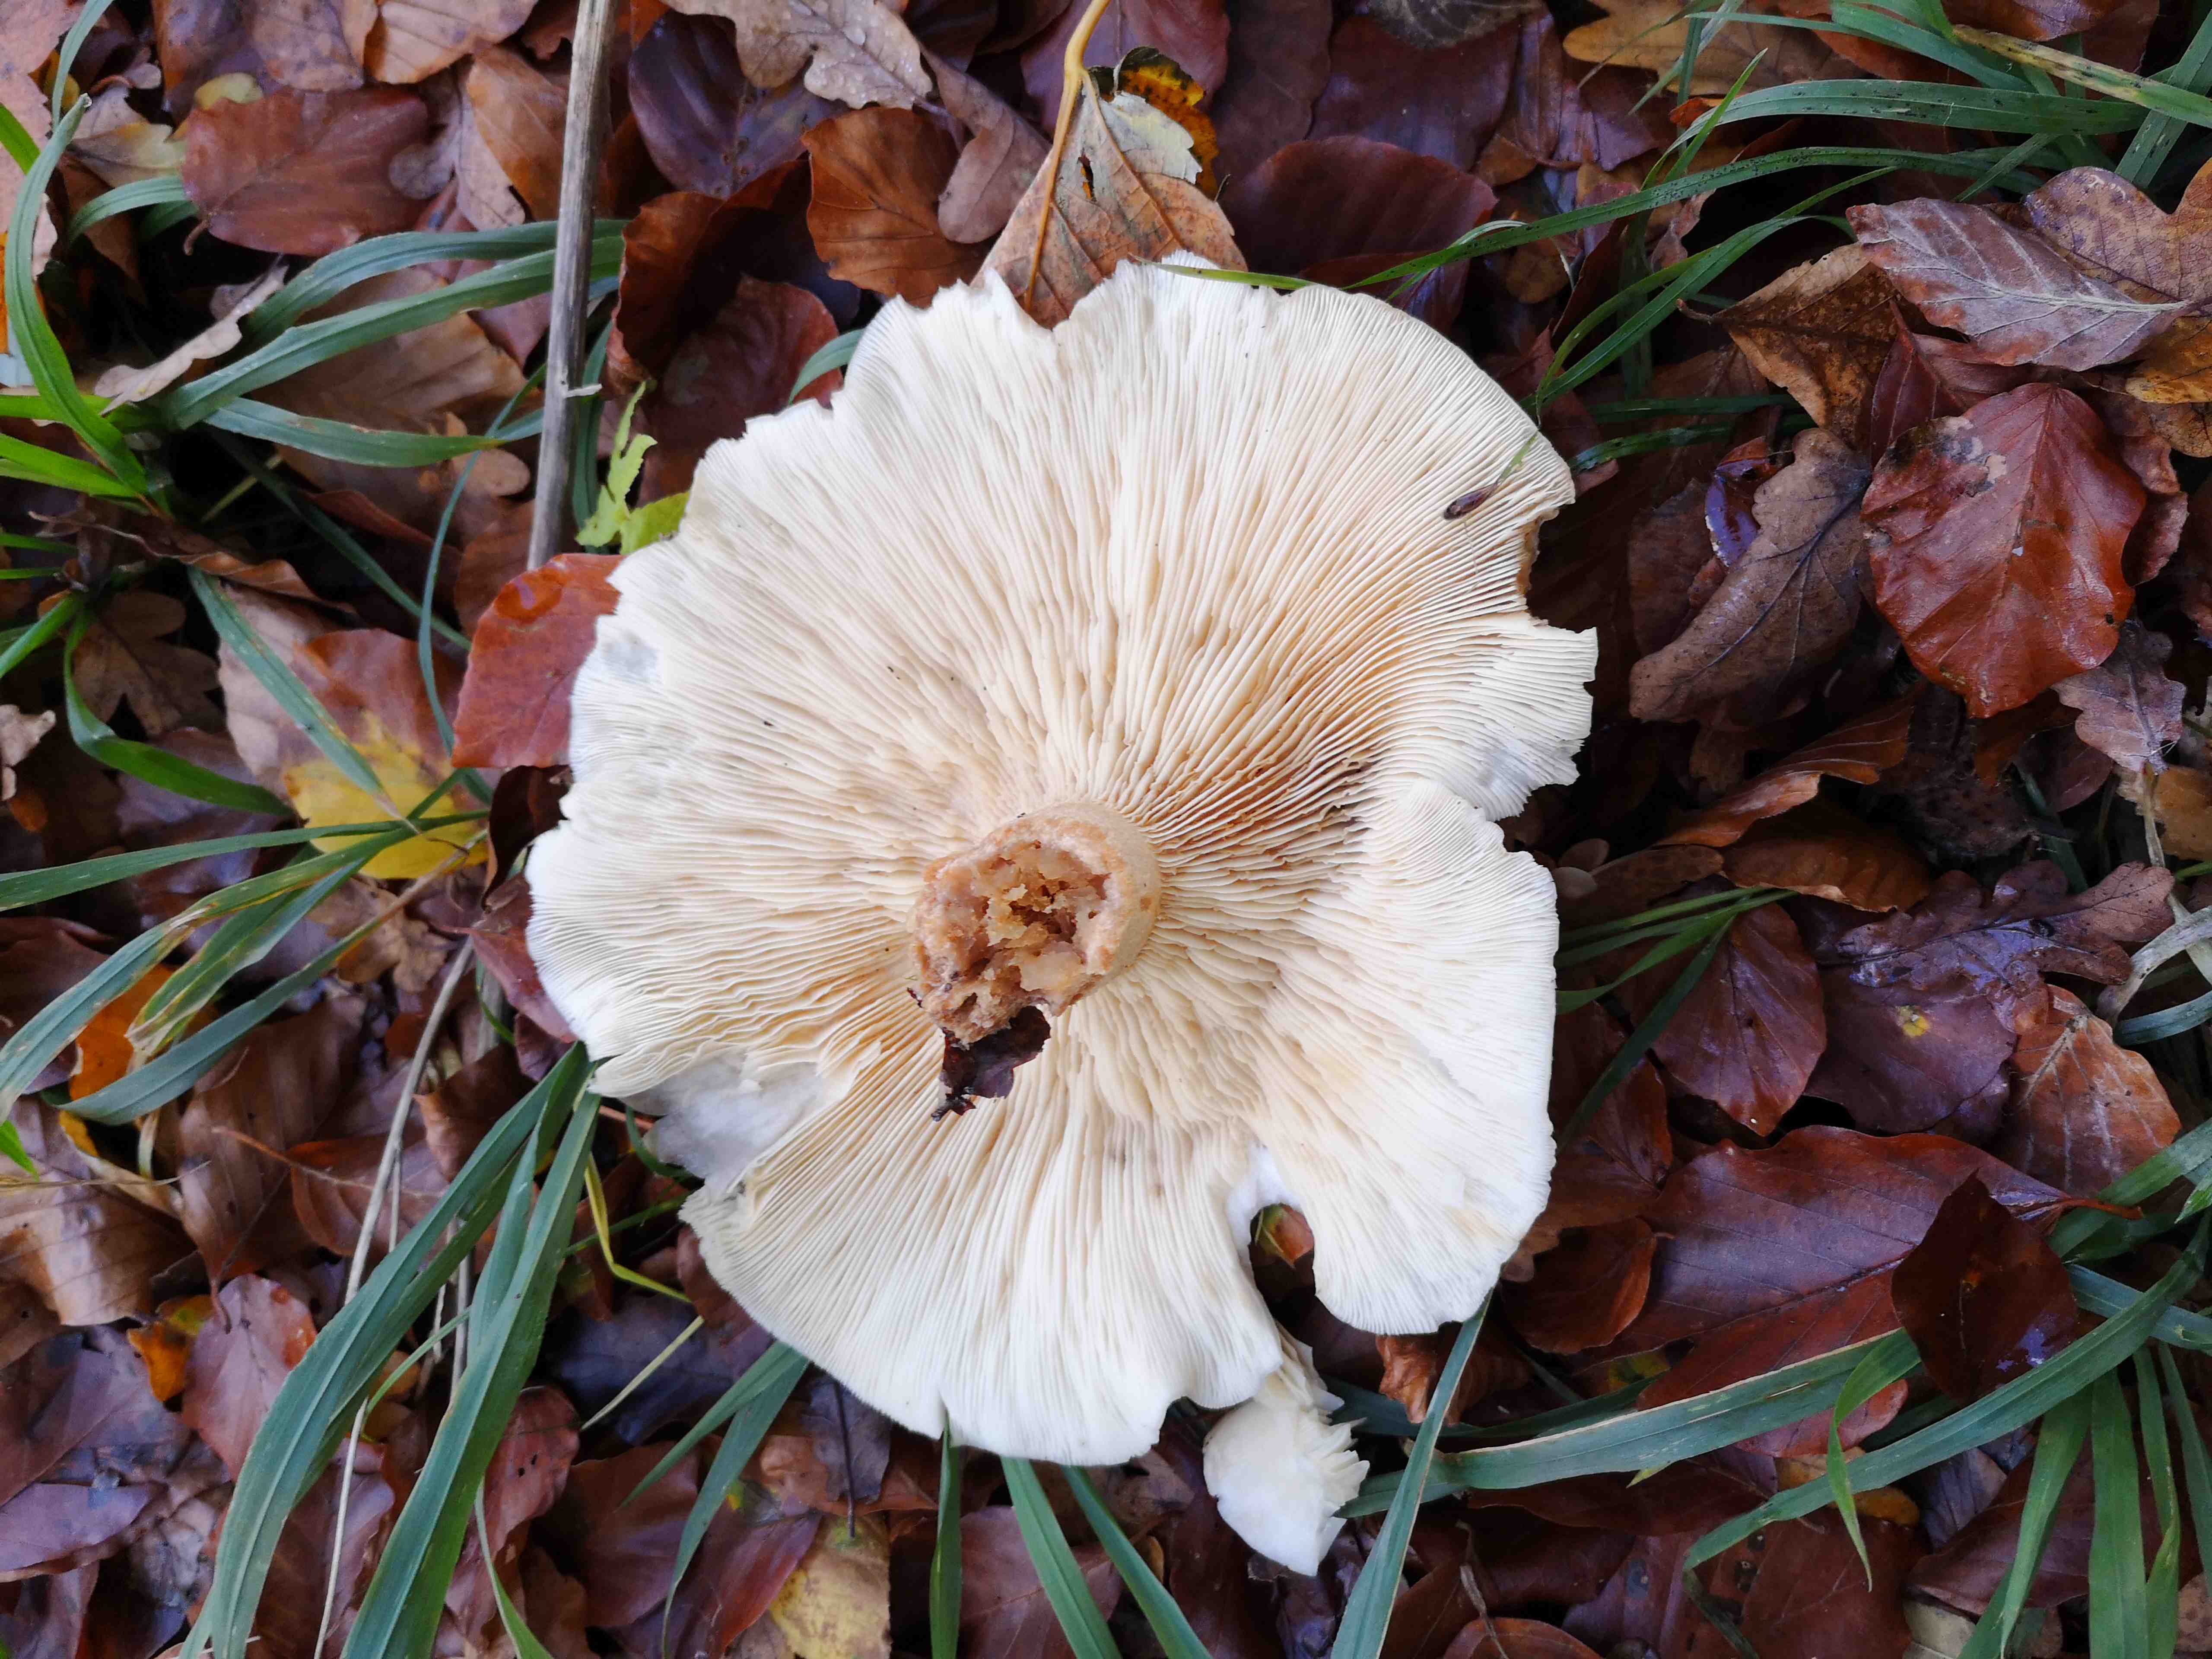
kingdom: Fungi
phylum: Basidiomycota
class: Agaricomycetes
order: Agaricales
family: Tricholomataceae
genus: Clitocybe
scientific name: Clitocybe nebularis
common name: tåge-tragthat
